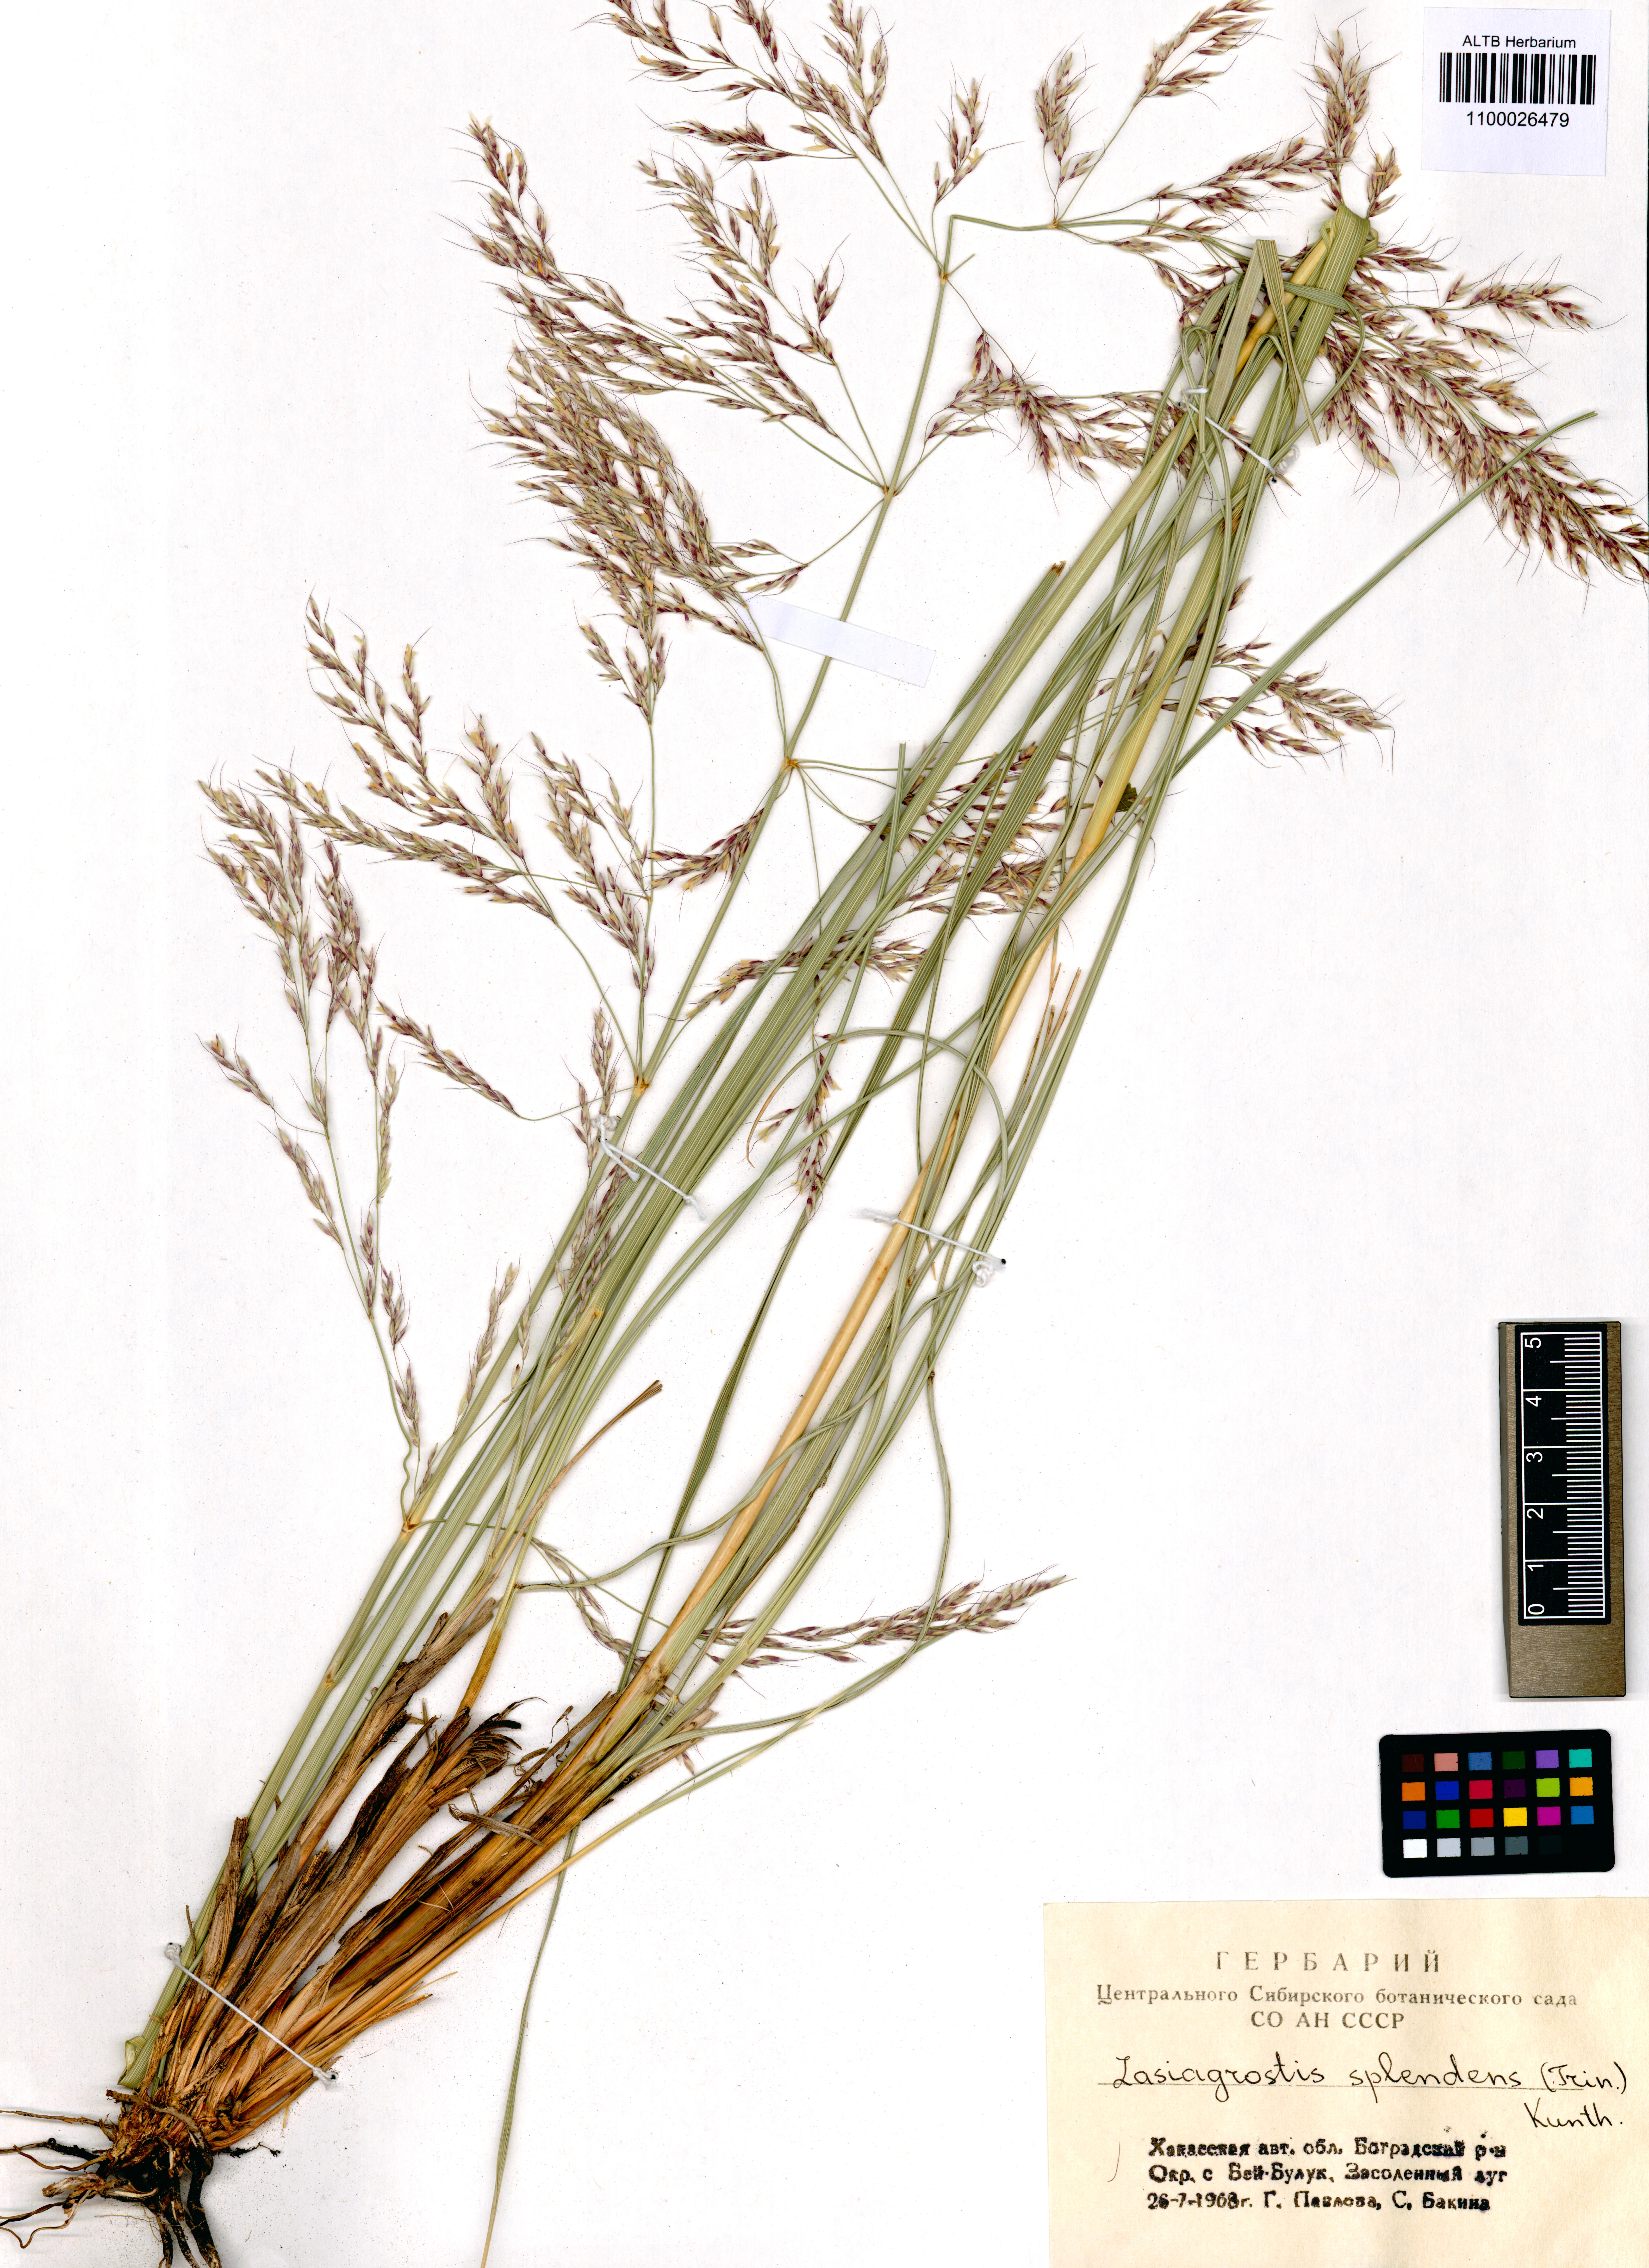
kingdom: Plantae
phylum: Tracheophyta
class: Liliopsida
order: Poales
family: Poaceae
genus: Neotrinia
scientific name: Neotrinia splendens
